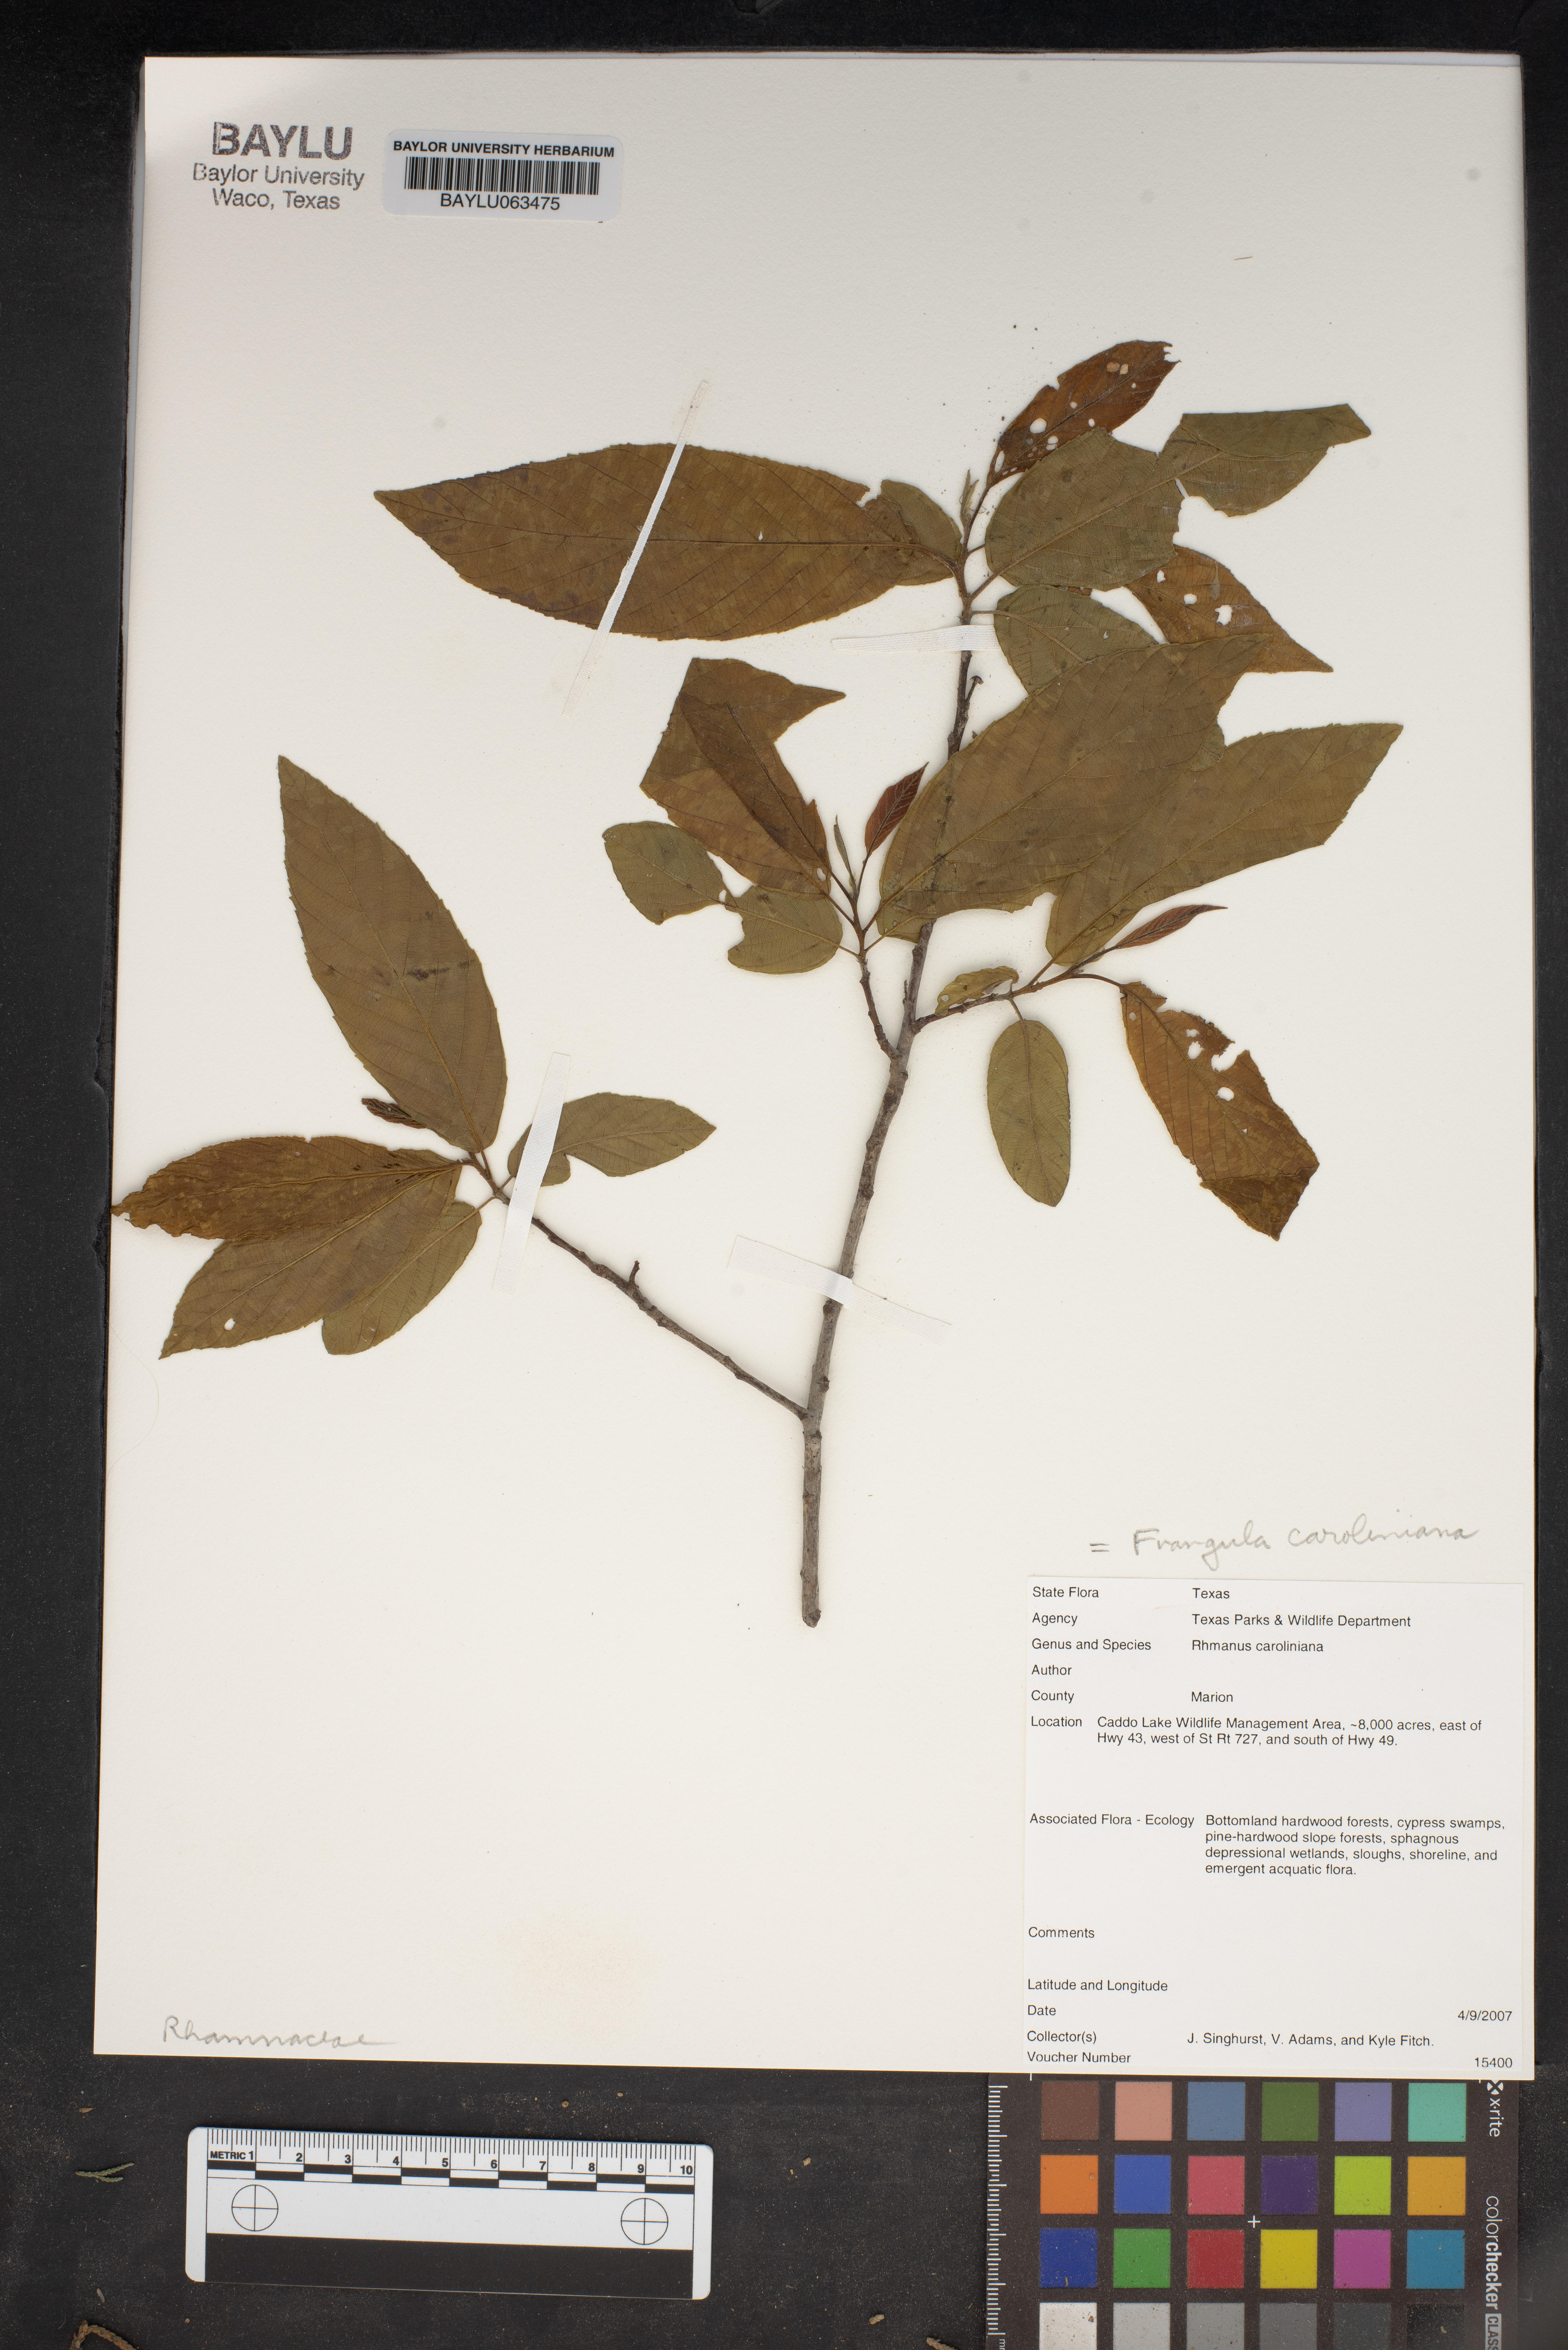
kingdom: Plantae
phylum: Tracheophyta
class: Magnoliopsida
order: Rosales
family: Rhamnaceae
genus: Frangula
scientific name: Frangula caroliniana
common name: Carolina buckthorn
